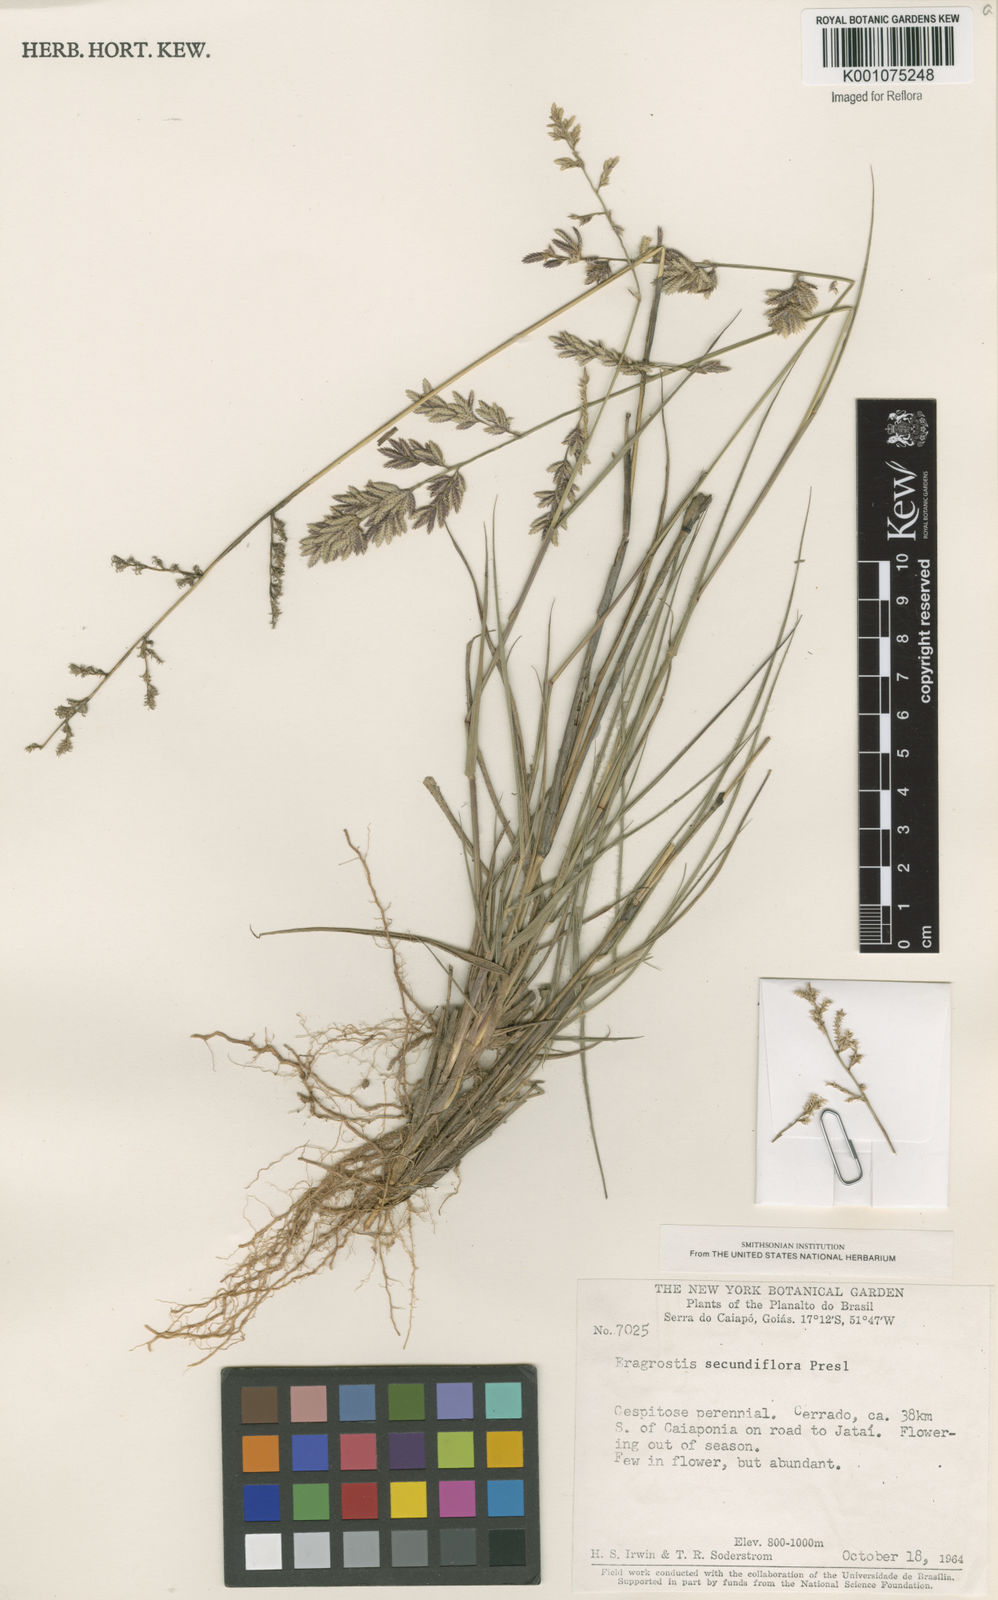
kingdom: Plantae
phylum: Tracheophyta
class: Liliopsida
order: Poales
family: Poaceae
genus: Eragrostis
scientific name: Eragrostis secundiflora
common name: Red love grass
